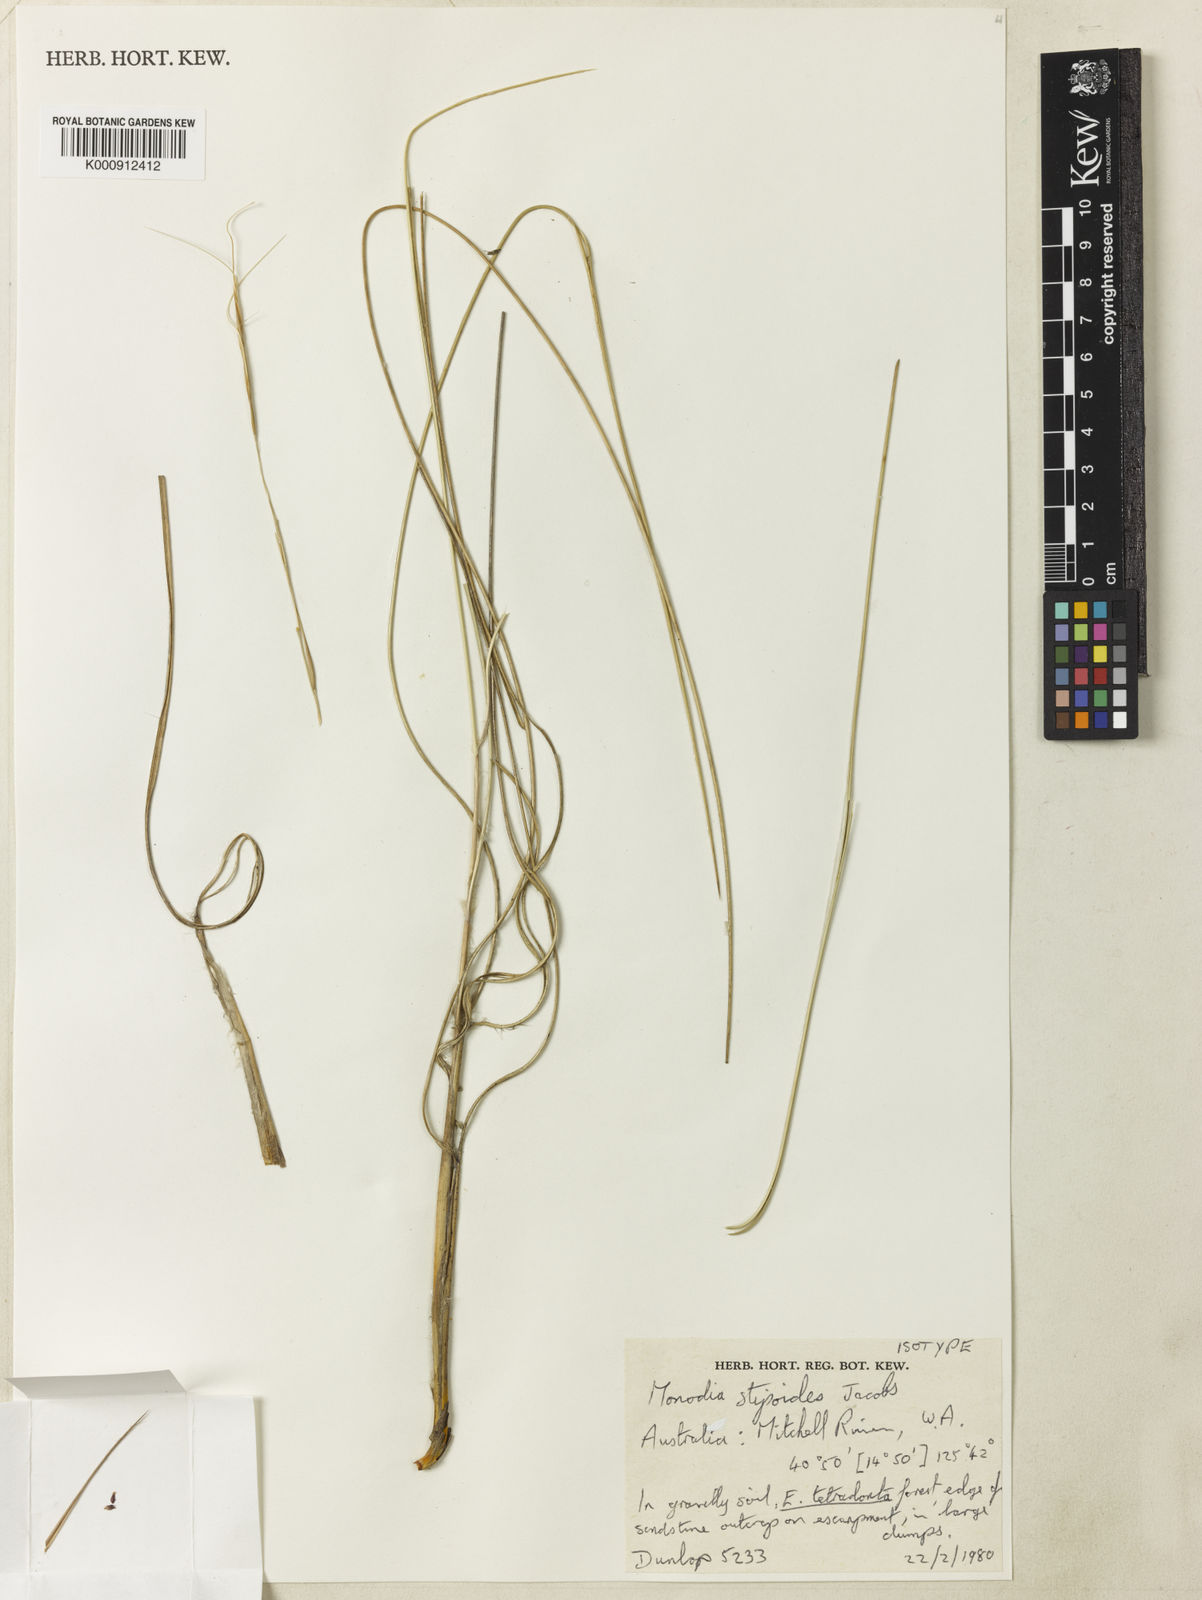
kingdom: Plantae
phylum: Tracheophyta
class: Liliopsida
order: Poales
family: Poaceae
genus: Triodia
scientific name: Triodia stipoides
